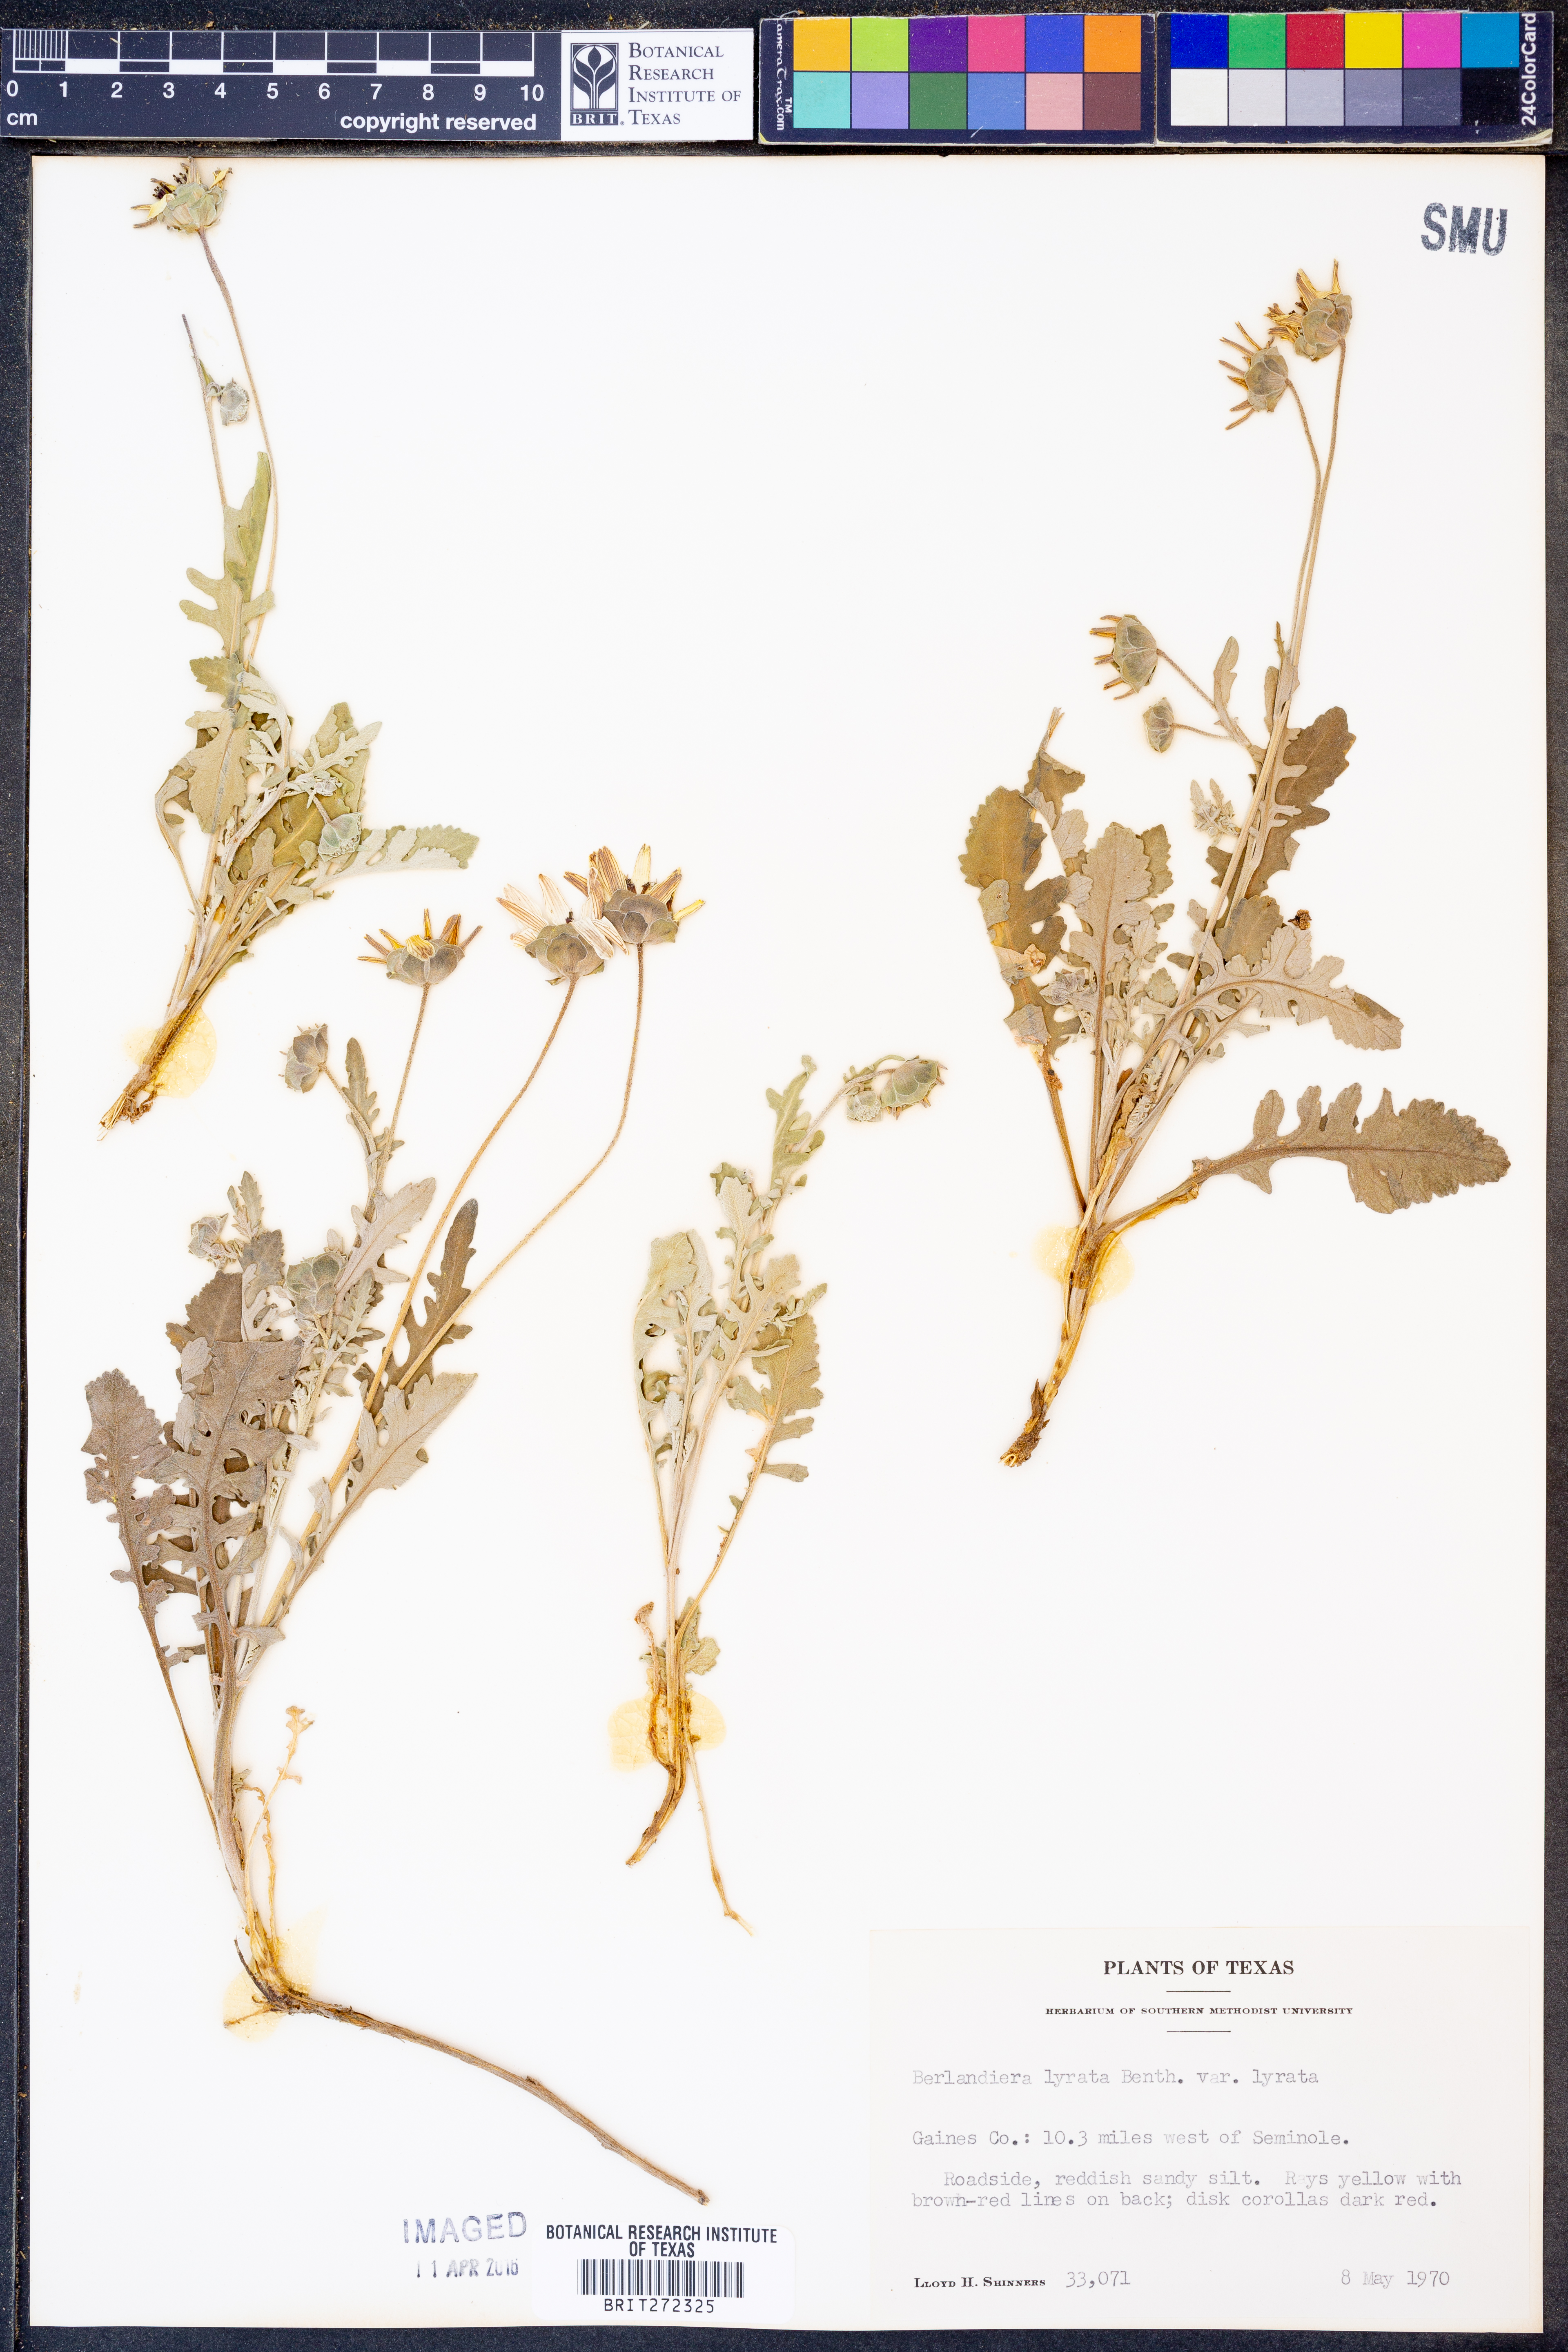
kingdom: Plantae
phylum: Tracheophyta
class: Magnoliopsida
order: Asterales
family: Asteraceae
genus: Berlandiera
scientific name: Berlandiera lyrata
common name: Chocolate-flower
